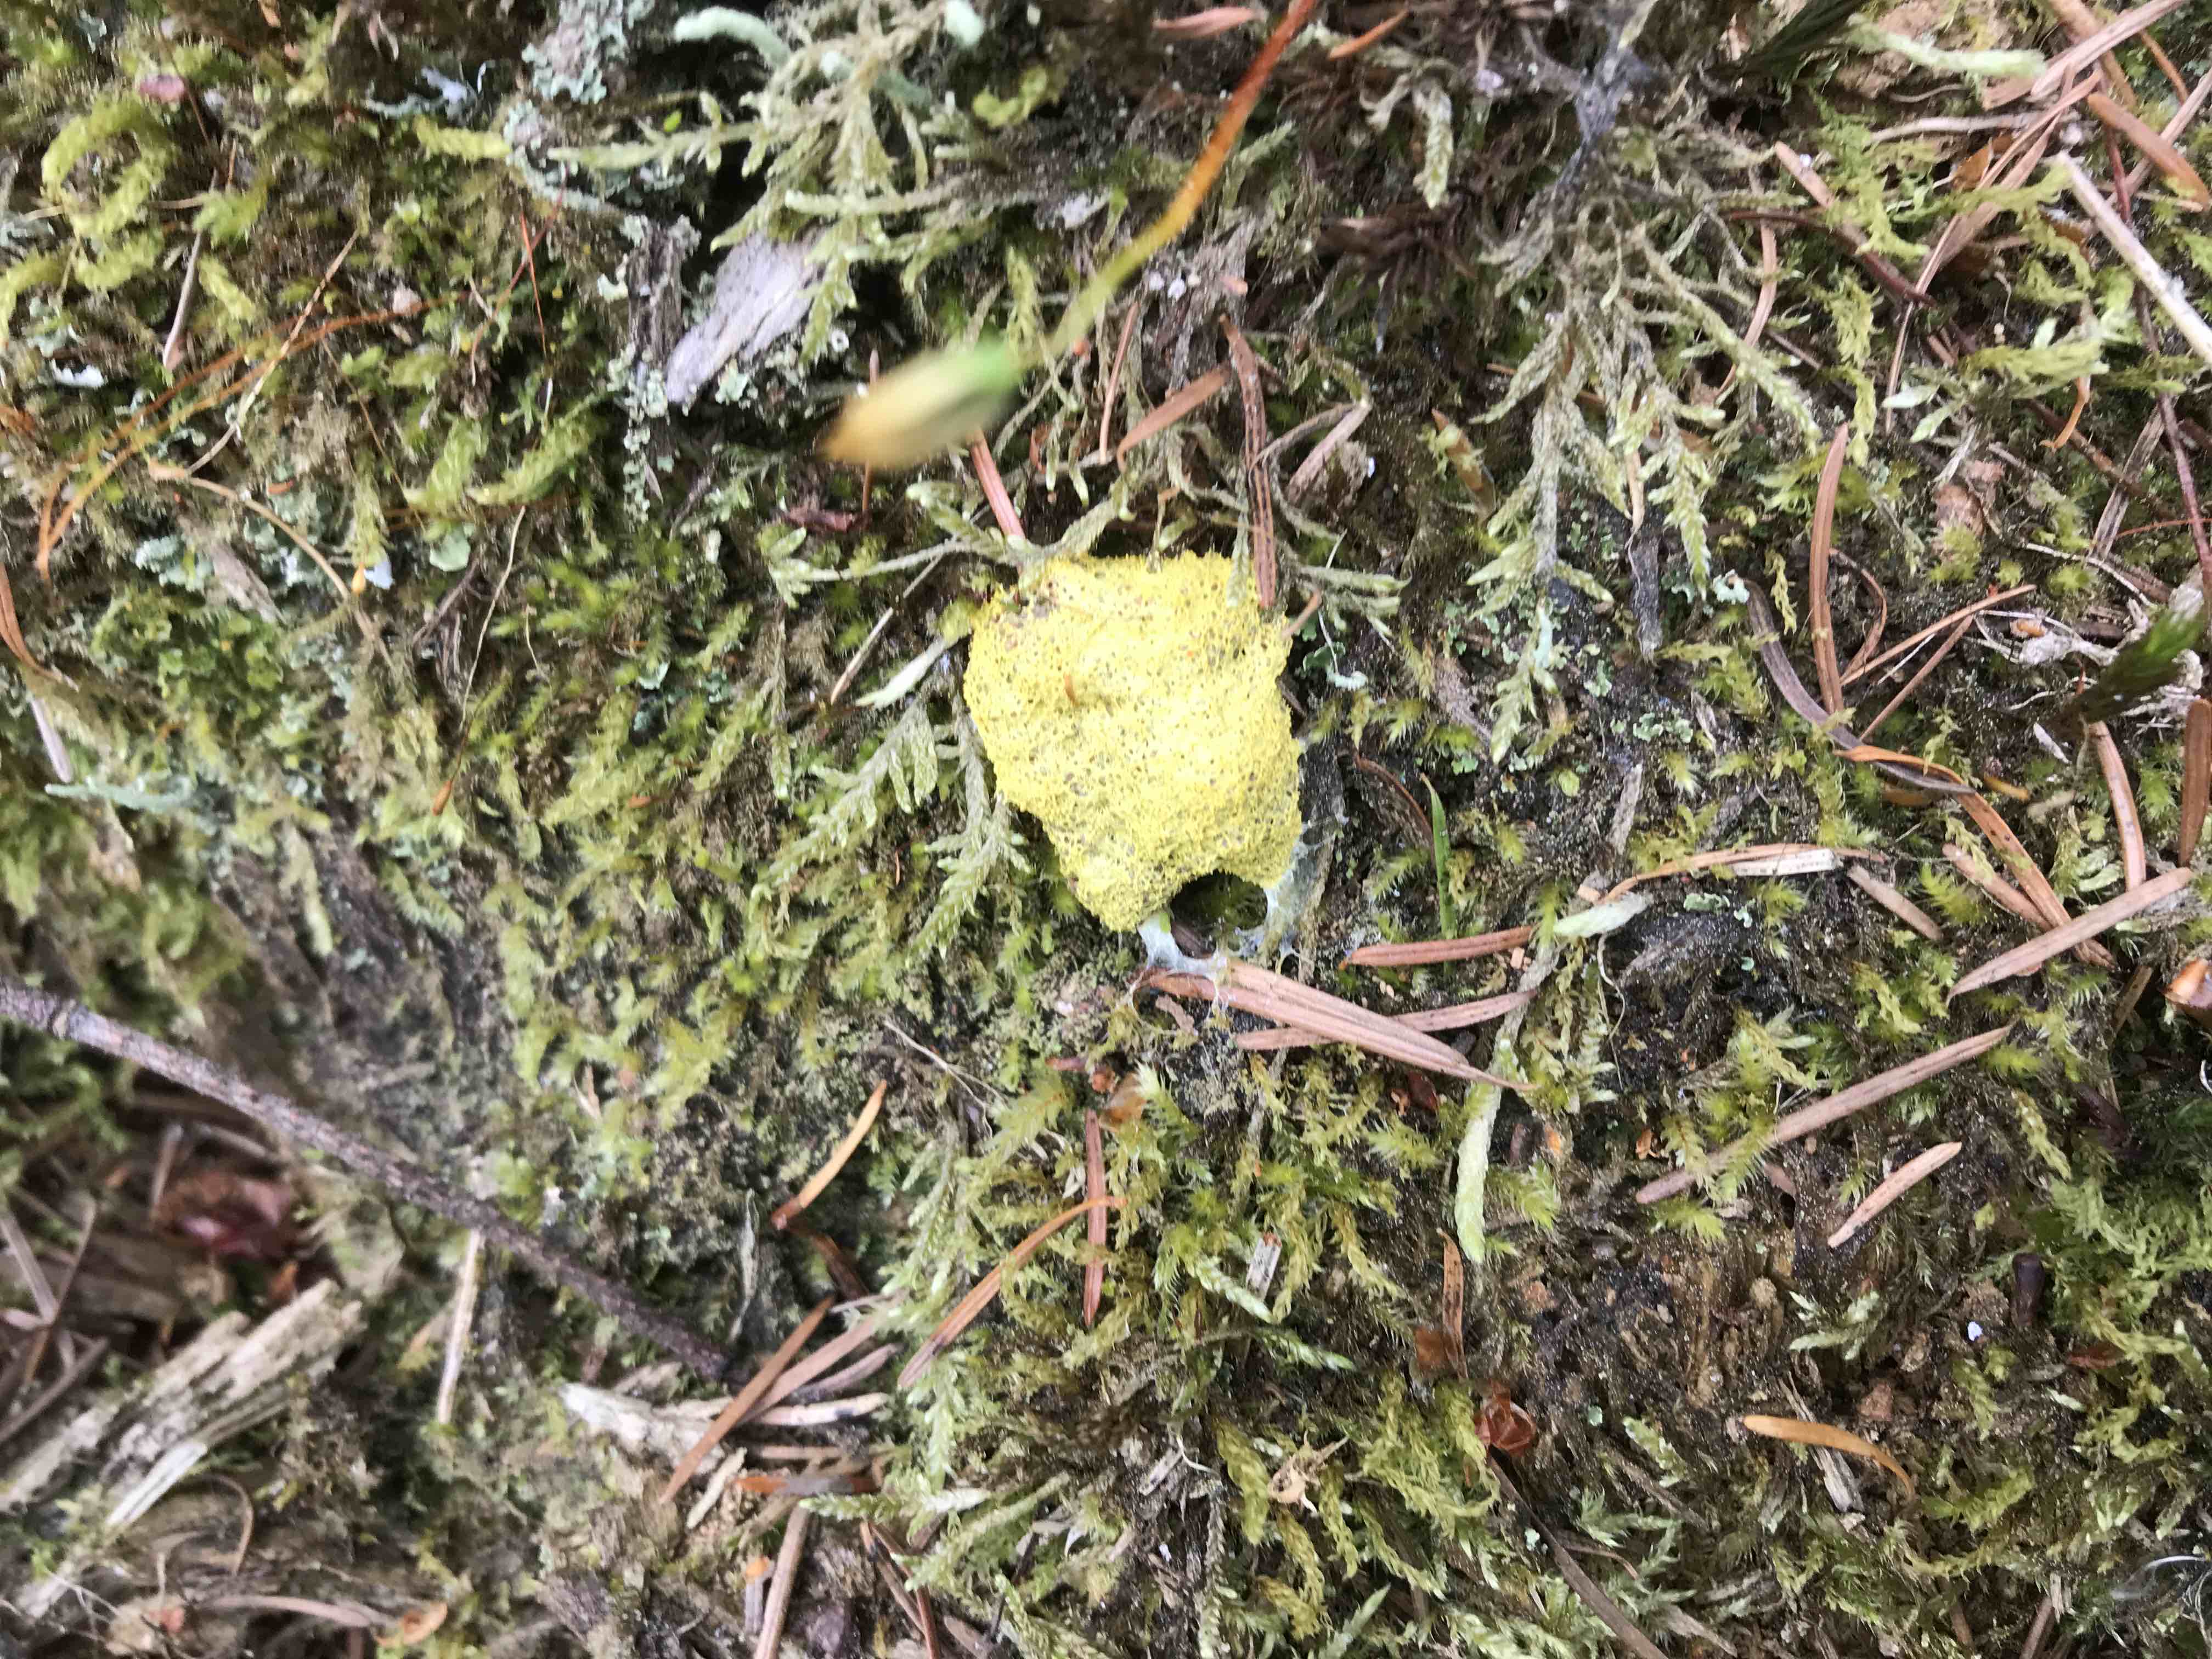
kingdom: Protozoa
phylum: Mycetozoa
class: Myxomycetes
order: Physarales
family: Physaraceae
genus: Fuligo
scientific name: Fuligo septica
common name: gul troldsmør
